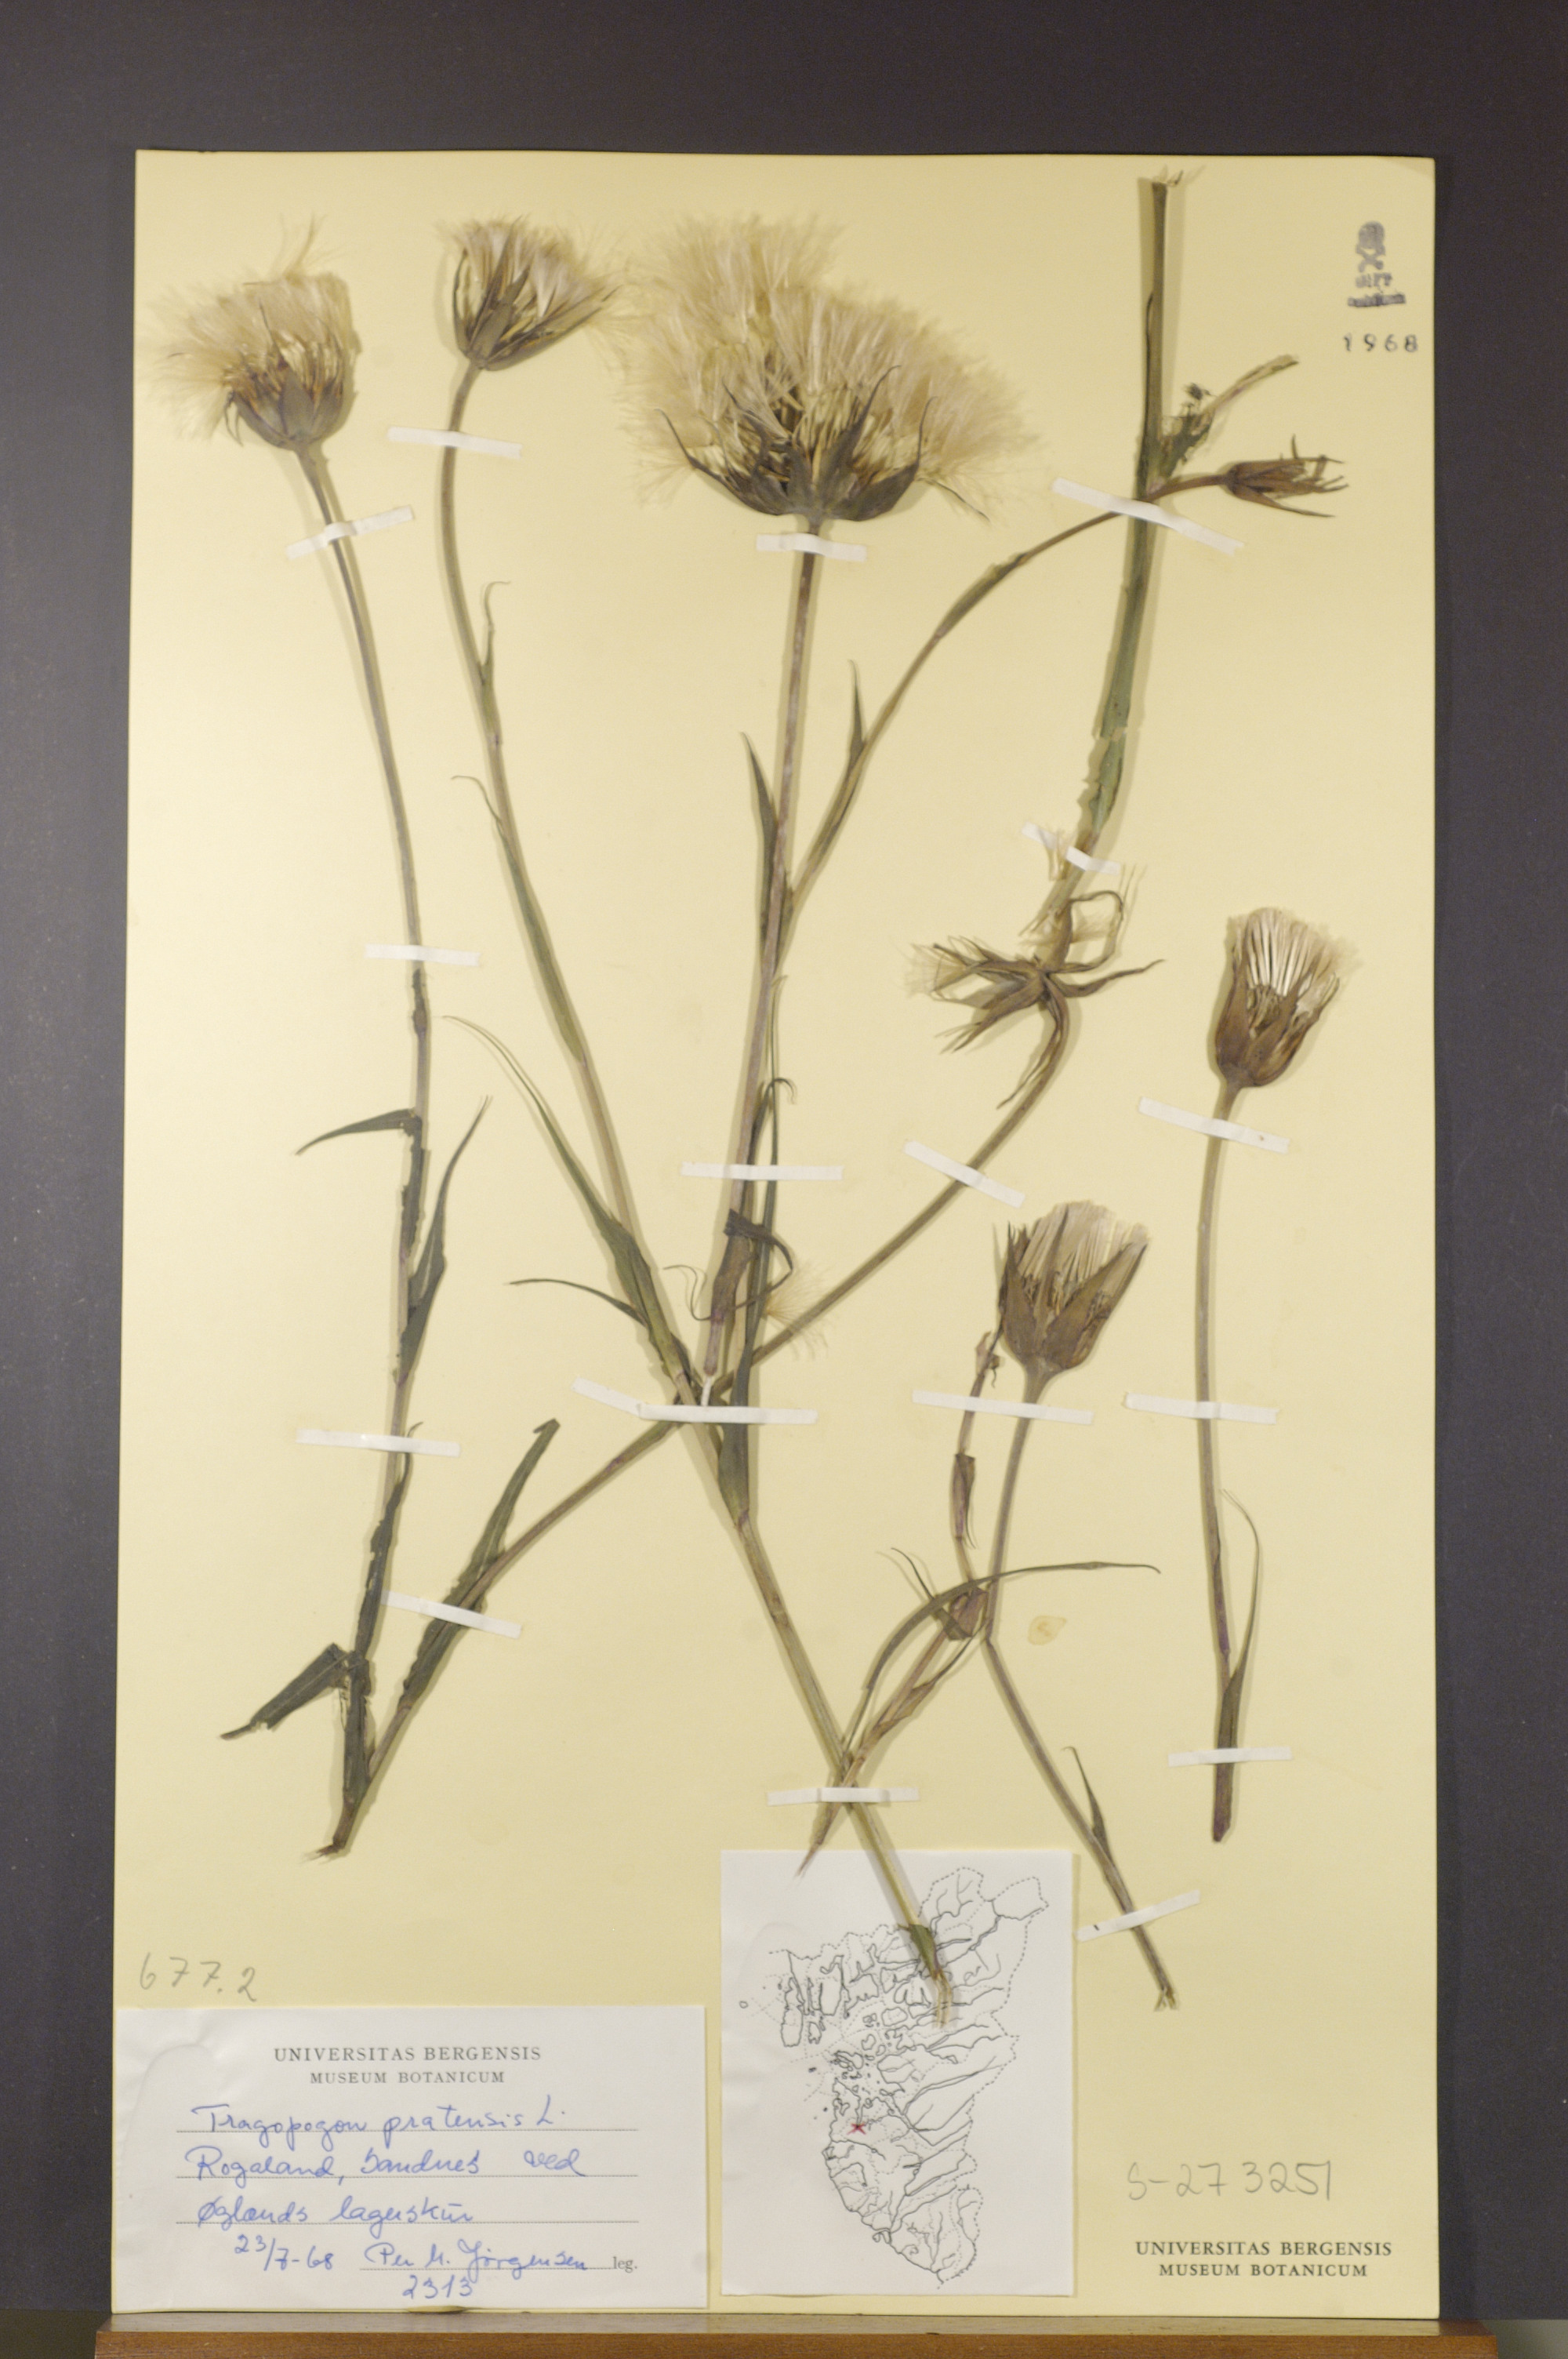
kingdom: Plantae
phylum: Tracheophyta
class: Magnoliopsida
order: Asterales
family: Asteraceae
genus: Tragopogon
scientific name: Tragopogon pratensis
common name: Goat's-beard
